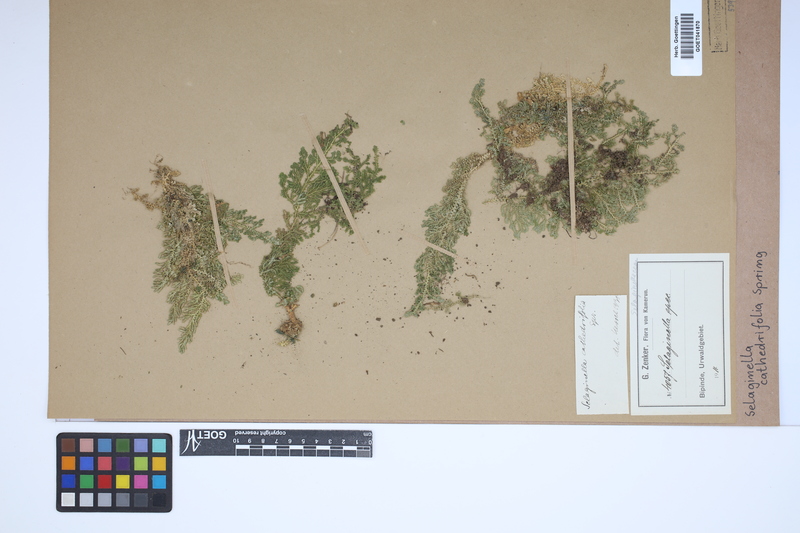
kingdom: Plantae
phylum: Tracheophyta
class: Lycopodiopsida
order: Selaginellales
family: Selaginellaceae
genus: Selaginella
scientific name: Selaginella cathedrifolia
